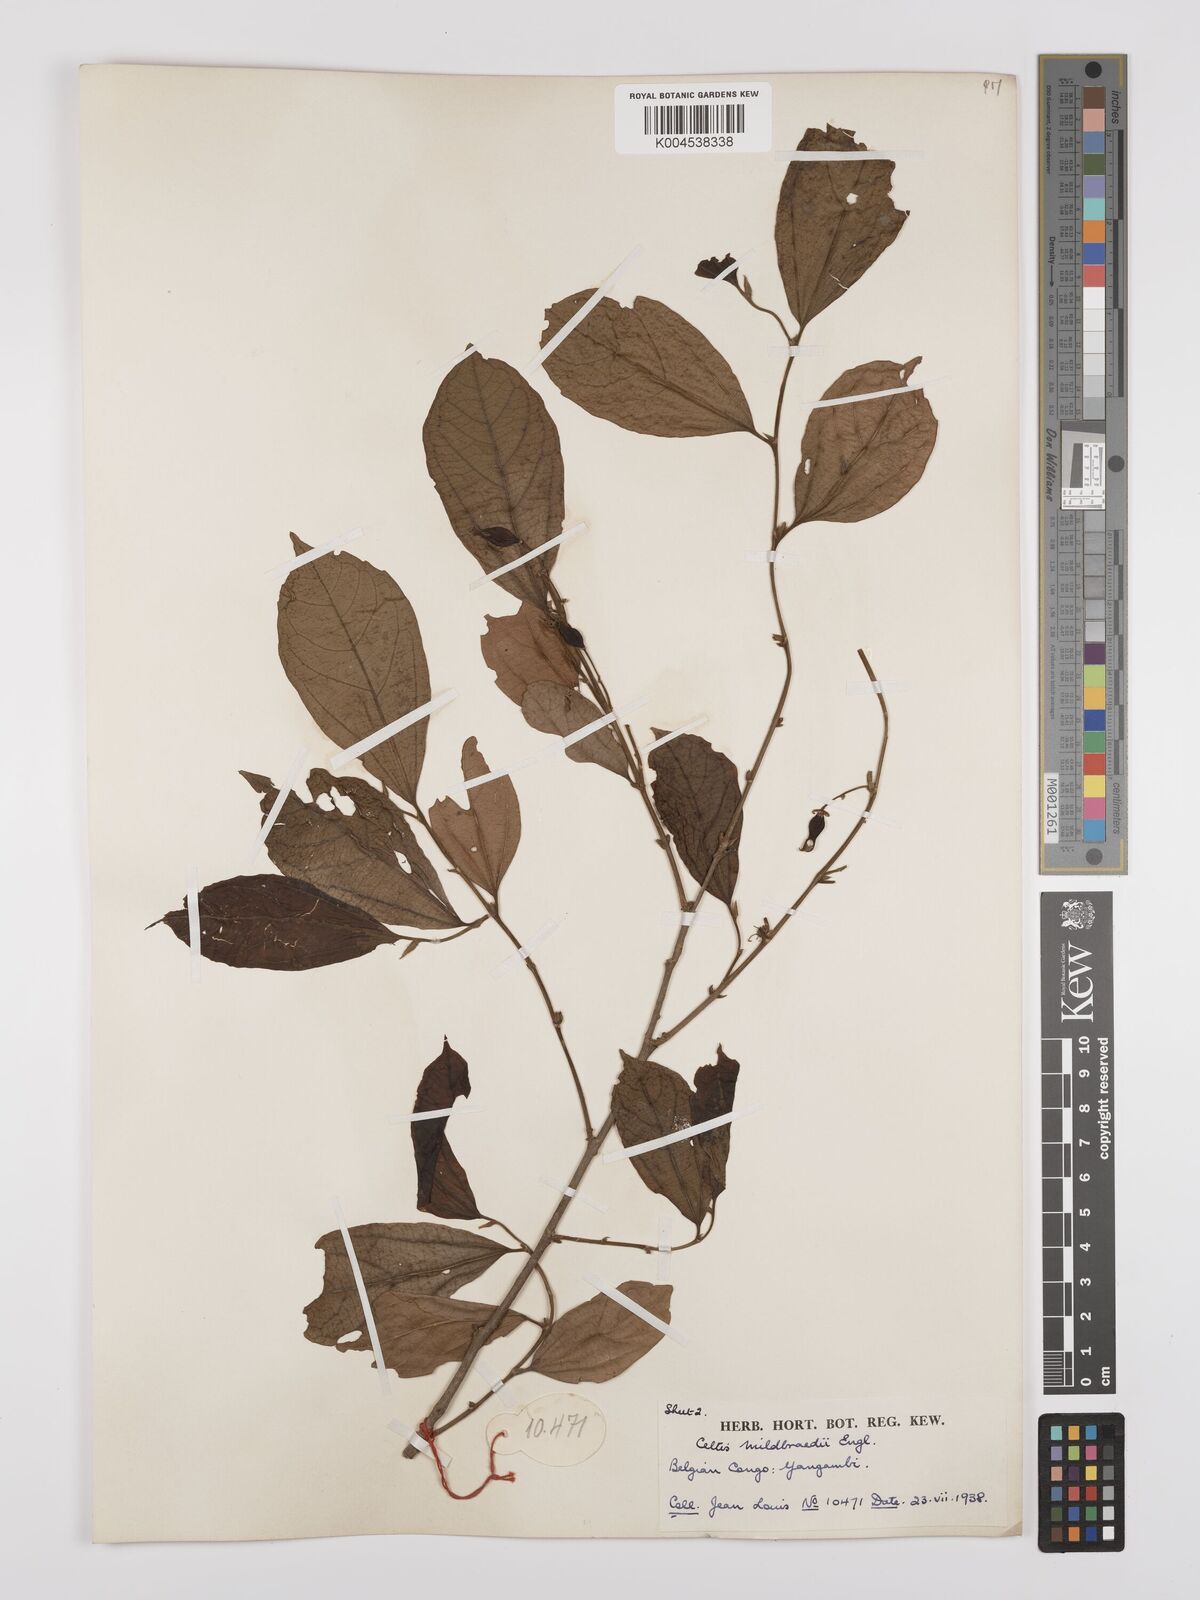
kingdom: Plantae
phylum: Tracheophyta
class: Magnoliopsida
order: Rosales
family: Cannabaceae
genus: Celtis
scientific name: Celtis mildbraedii
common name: Red-fruited stinkwood
